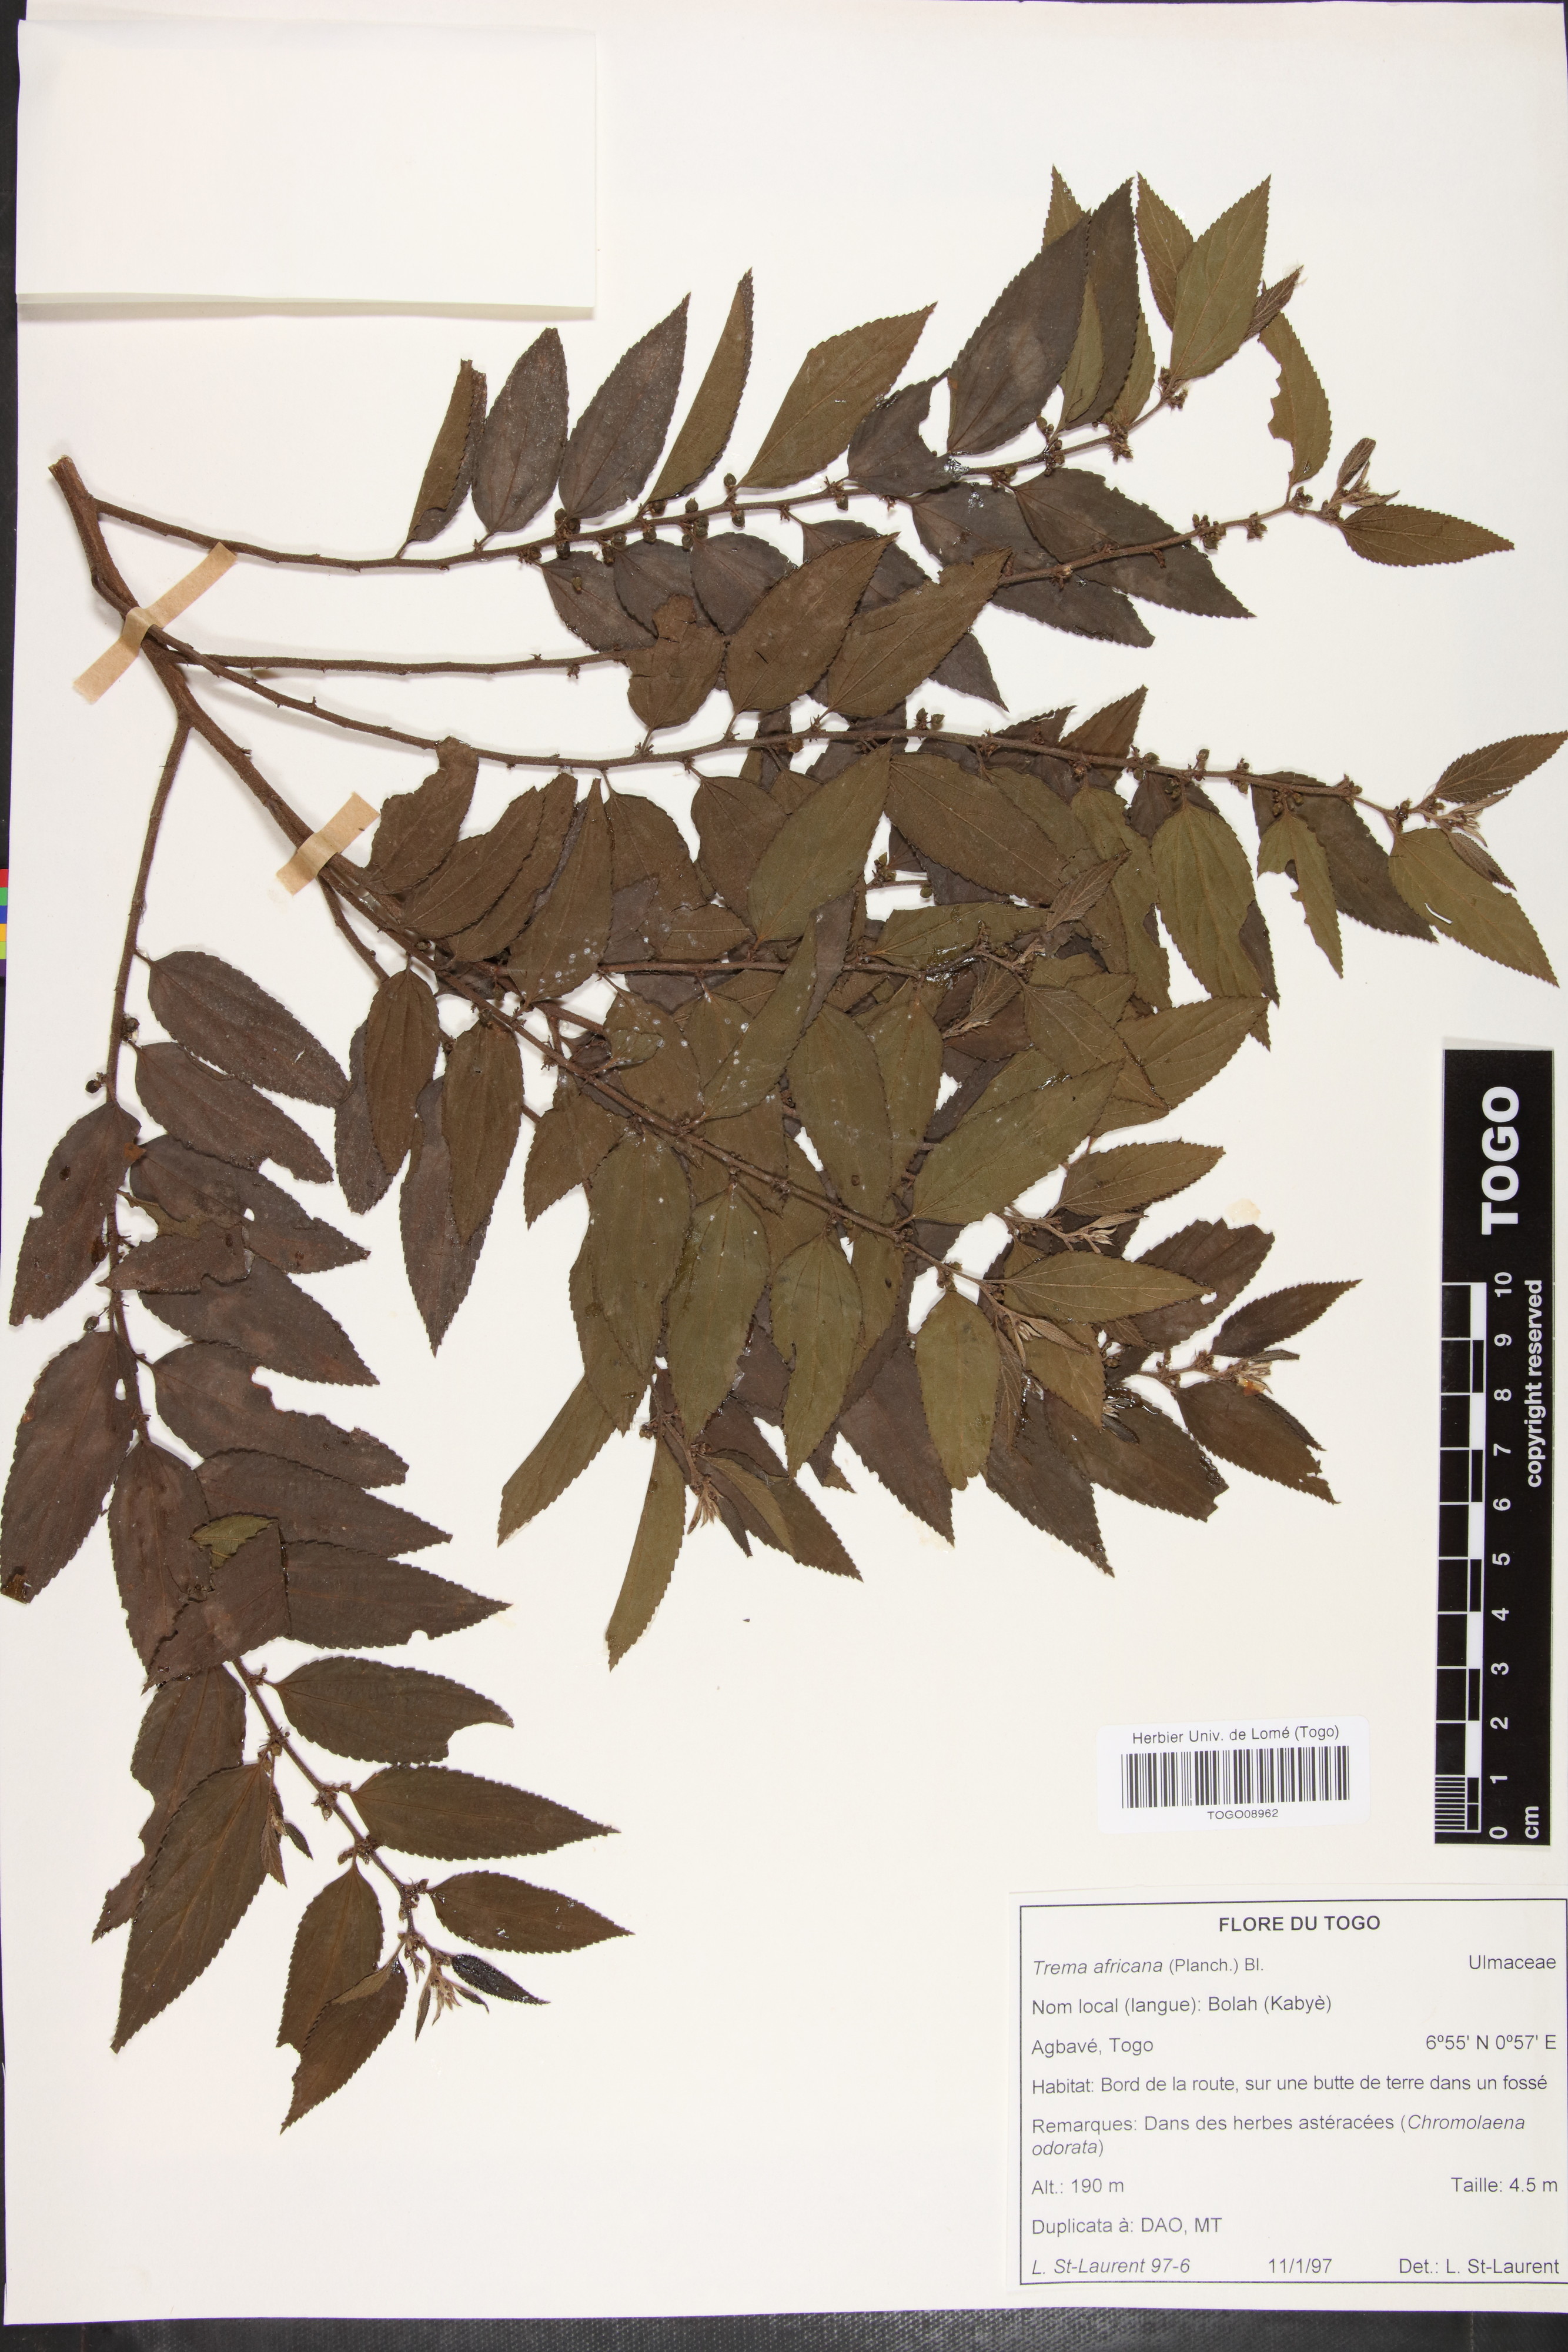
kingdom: Plantae
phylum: Tracheophyta
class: Magnoliopsida
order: Rosales
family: Cannabaceae
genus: Trema
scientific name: Trema orientale
